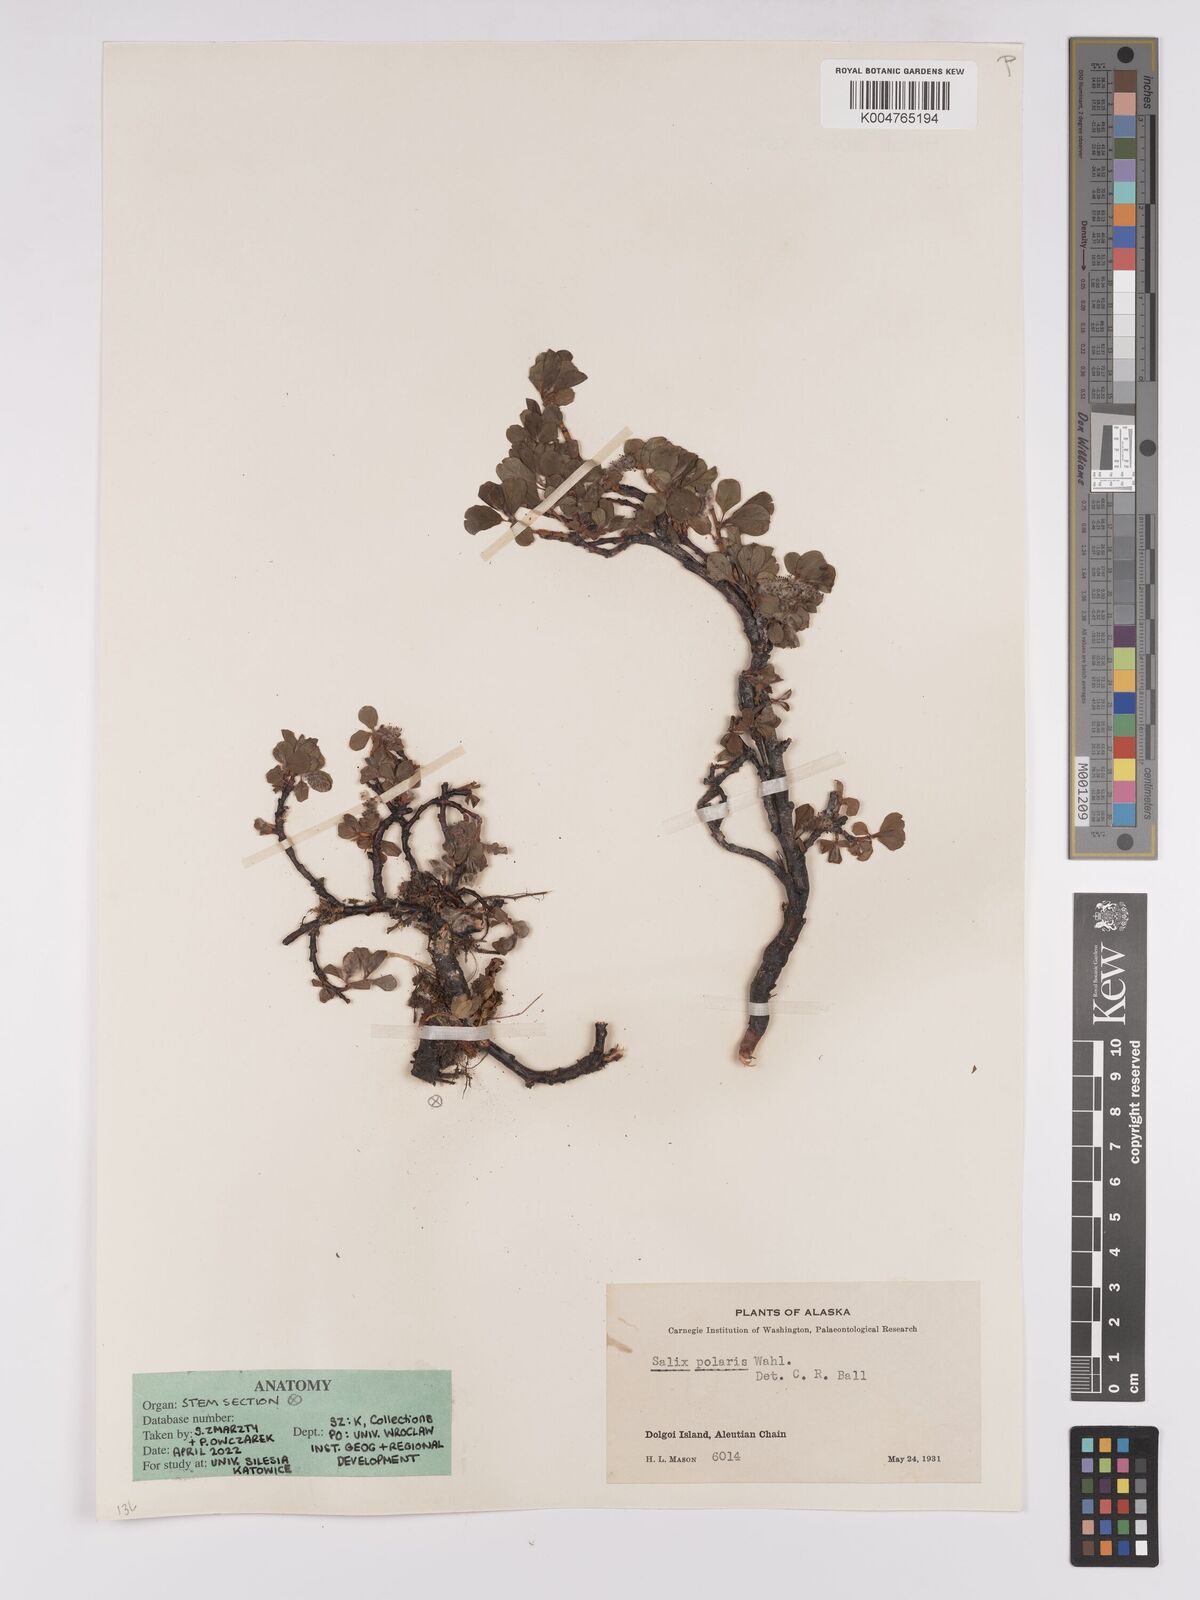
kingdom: Plantae
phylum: Tracheophyta
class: Magnoliopsida
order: Malpighiales
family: Salicaceae
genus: Salix
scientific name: Salix polaris
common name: Polar willow
